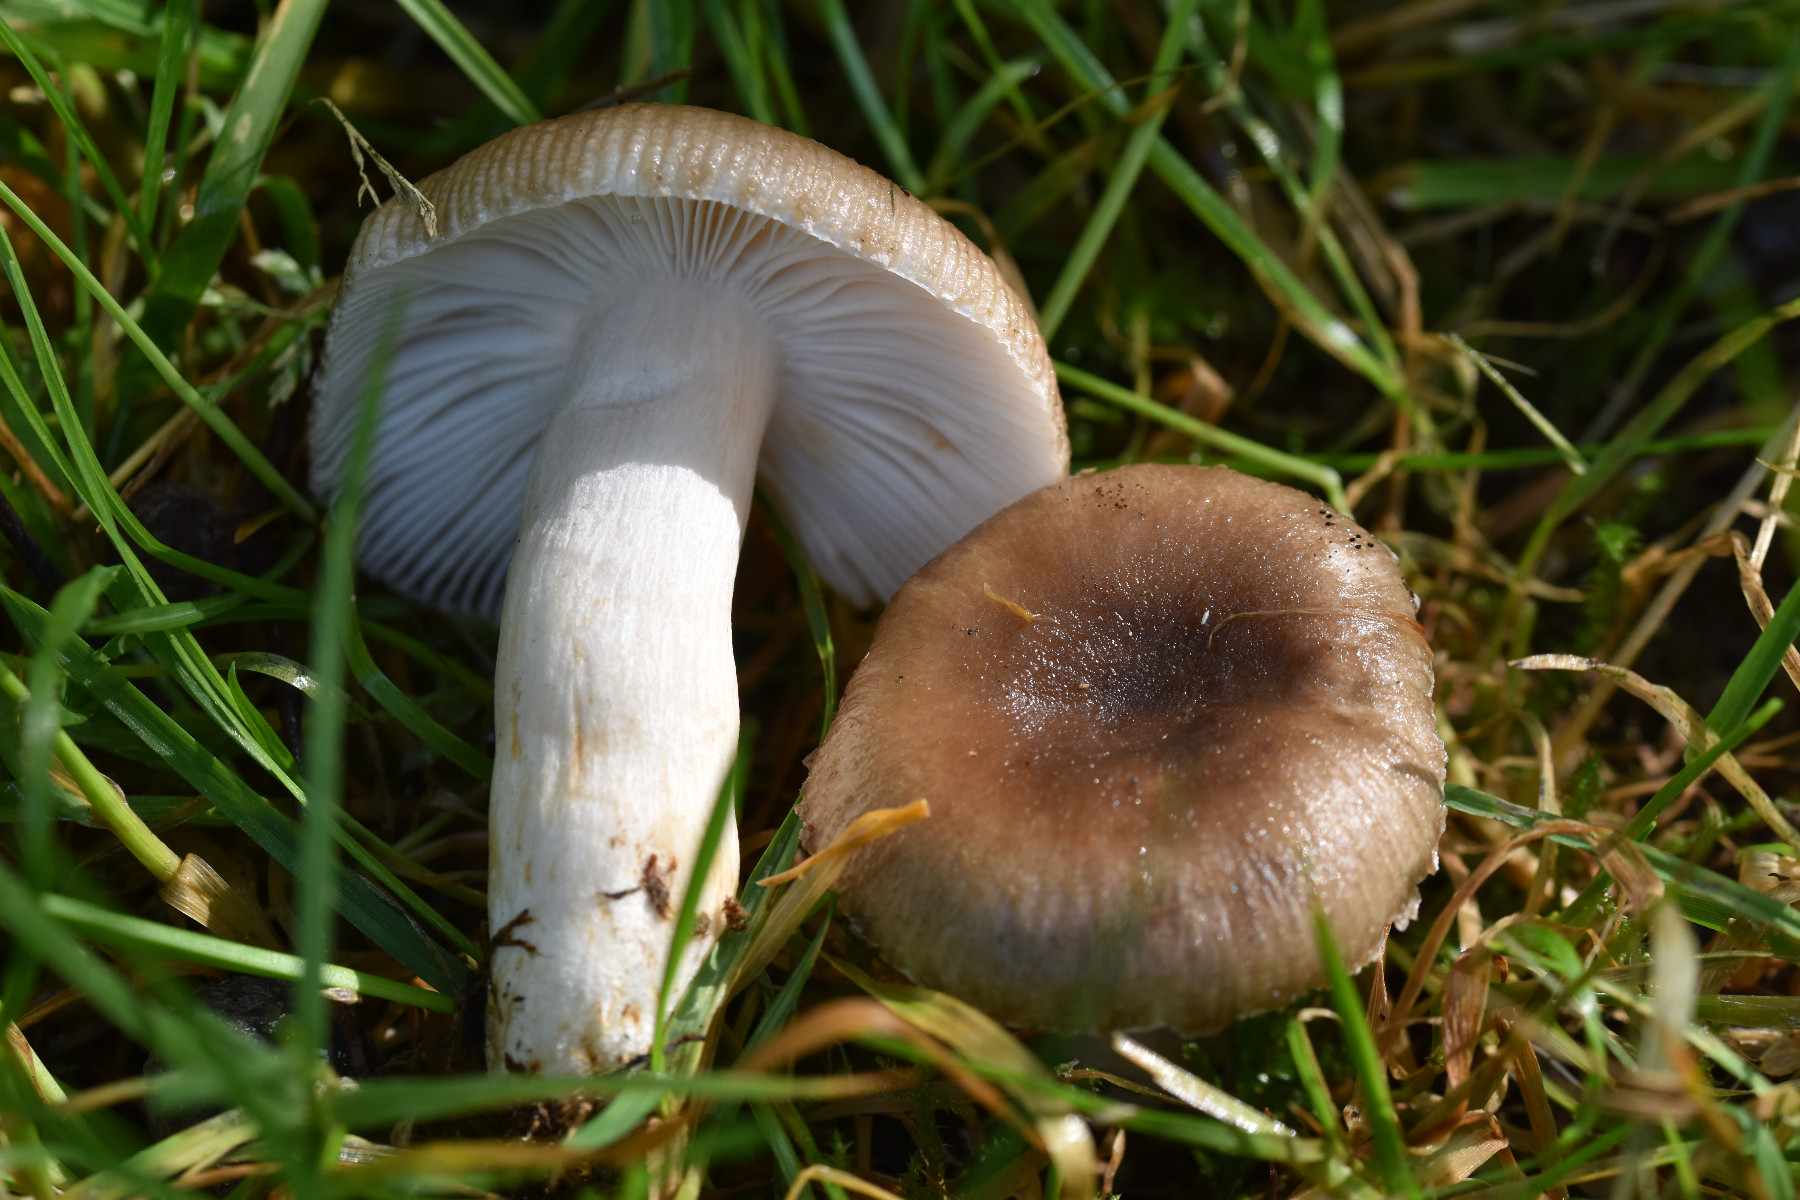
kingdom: Fungi
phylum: Basidiomycota
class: Agaricomycetes
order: Russulales
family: Russulaceae
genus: Russula
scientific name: Russula amoenolens
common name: skarp kam-skørhat
